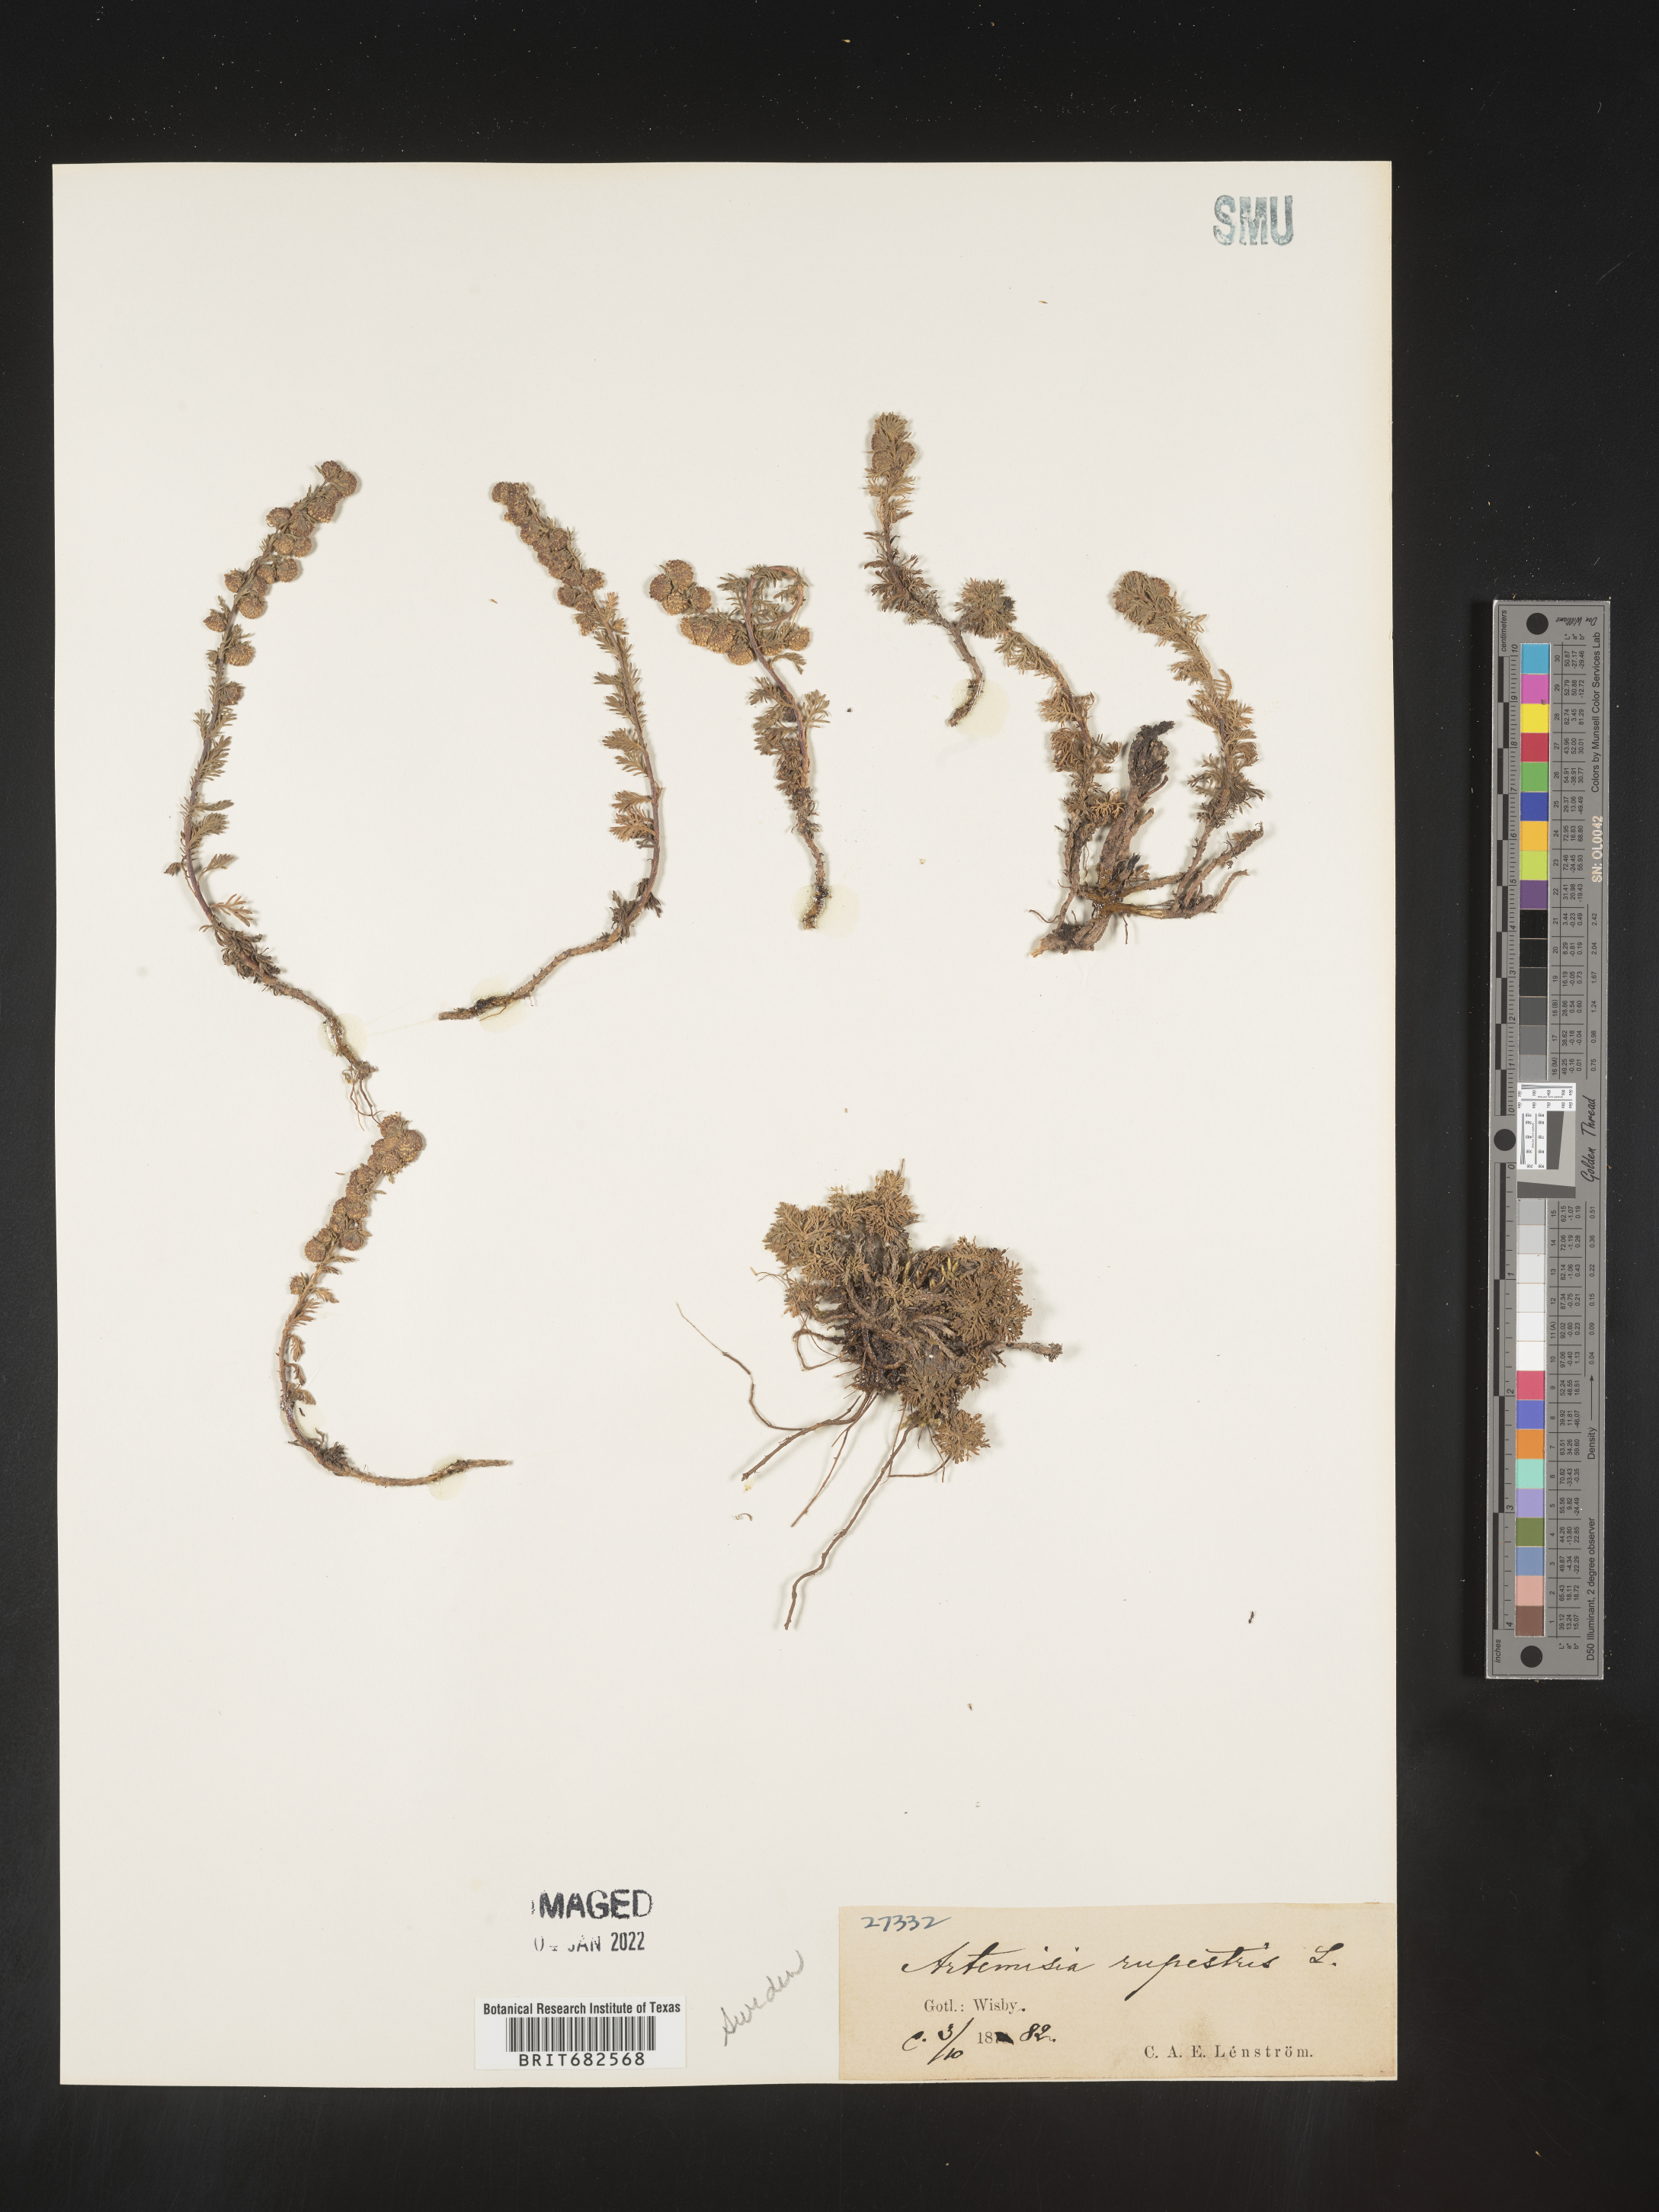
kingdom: Plantae
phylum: Tracheophyta
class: Magnoliopsida
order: Asterales
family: Asteraceae
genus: Artemisia
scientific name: Artemisia
